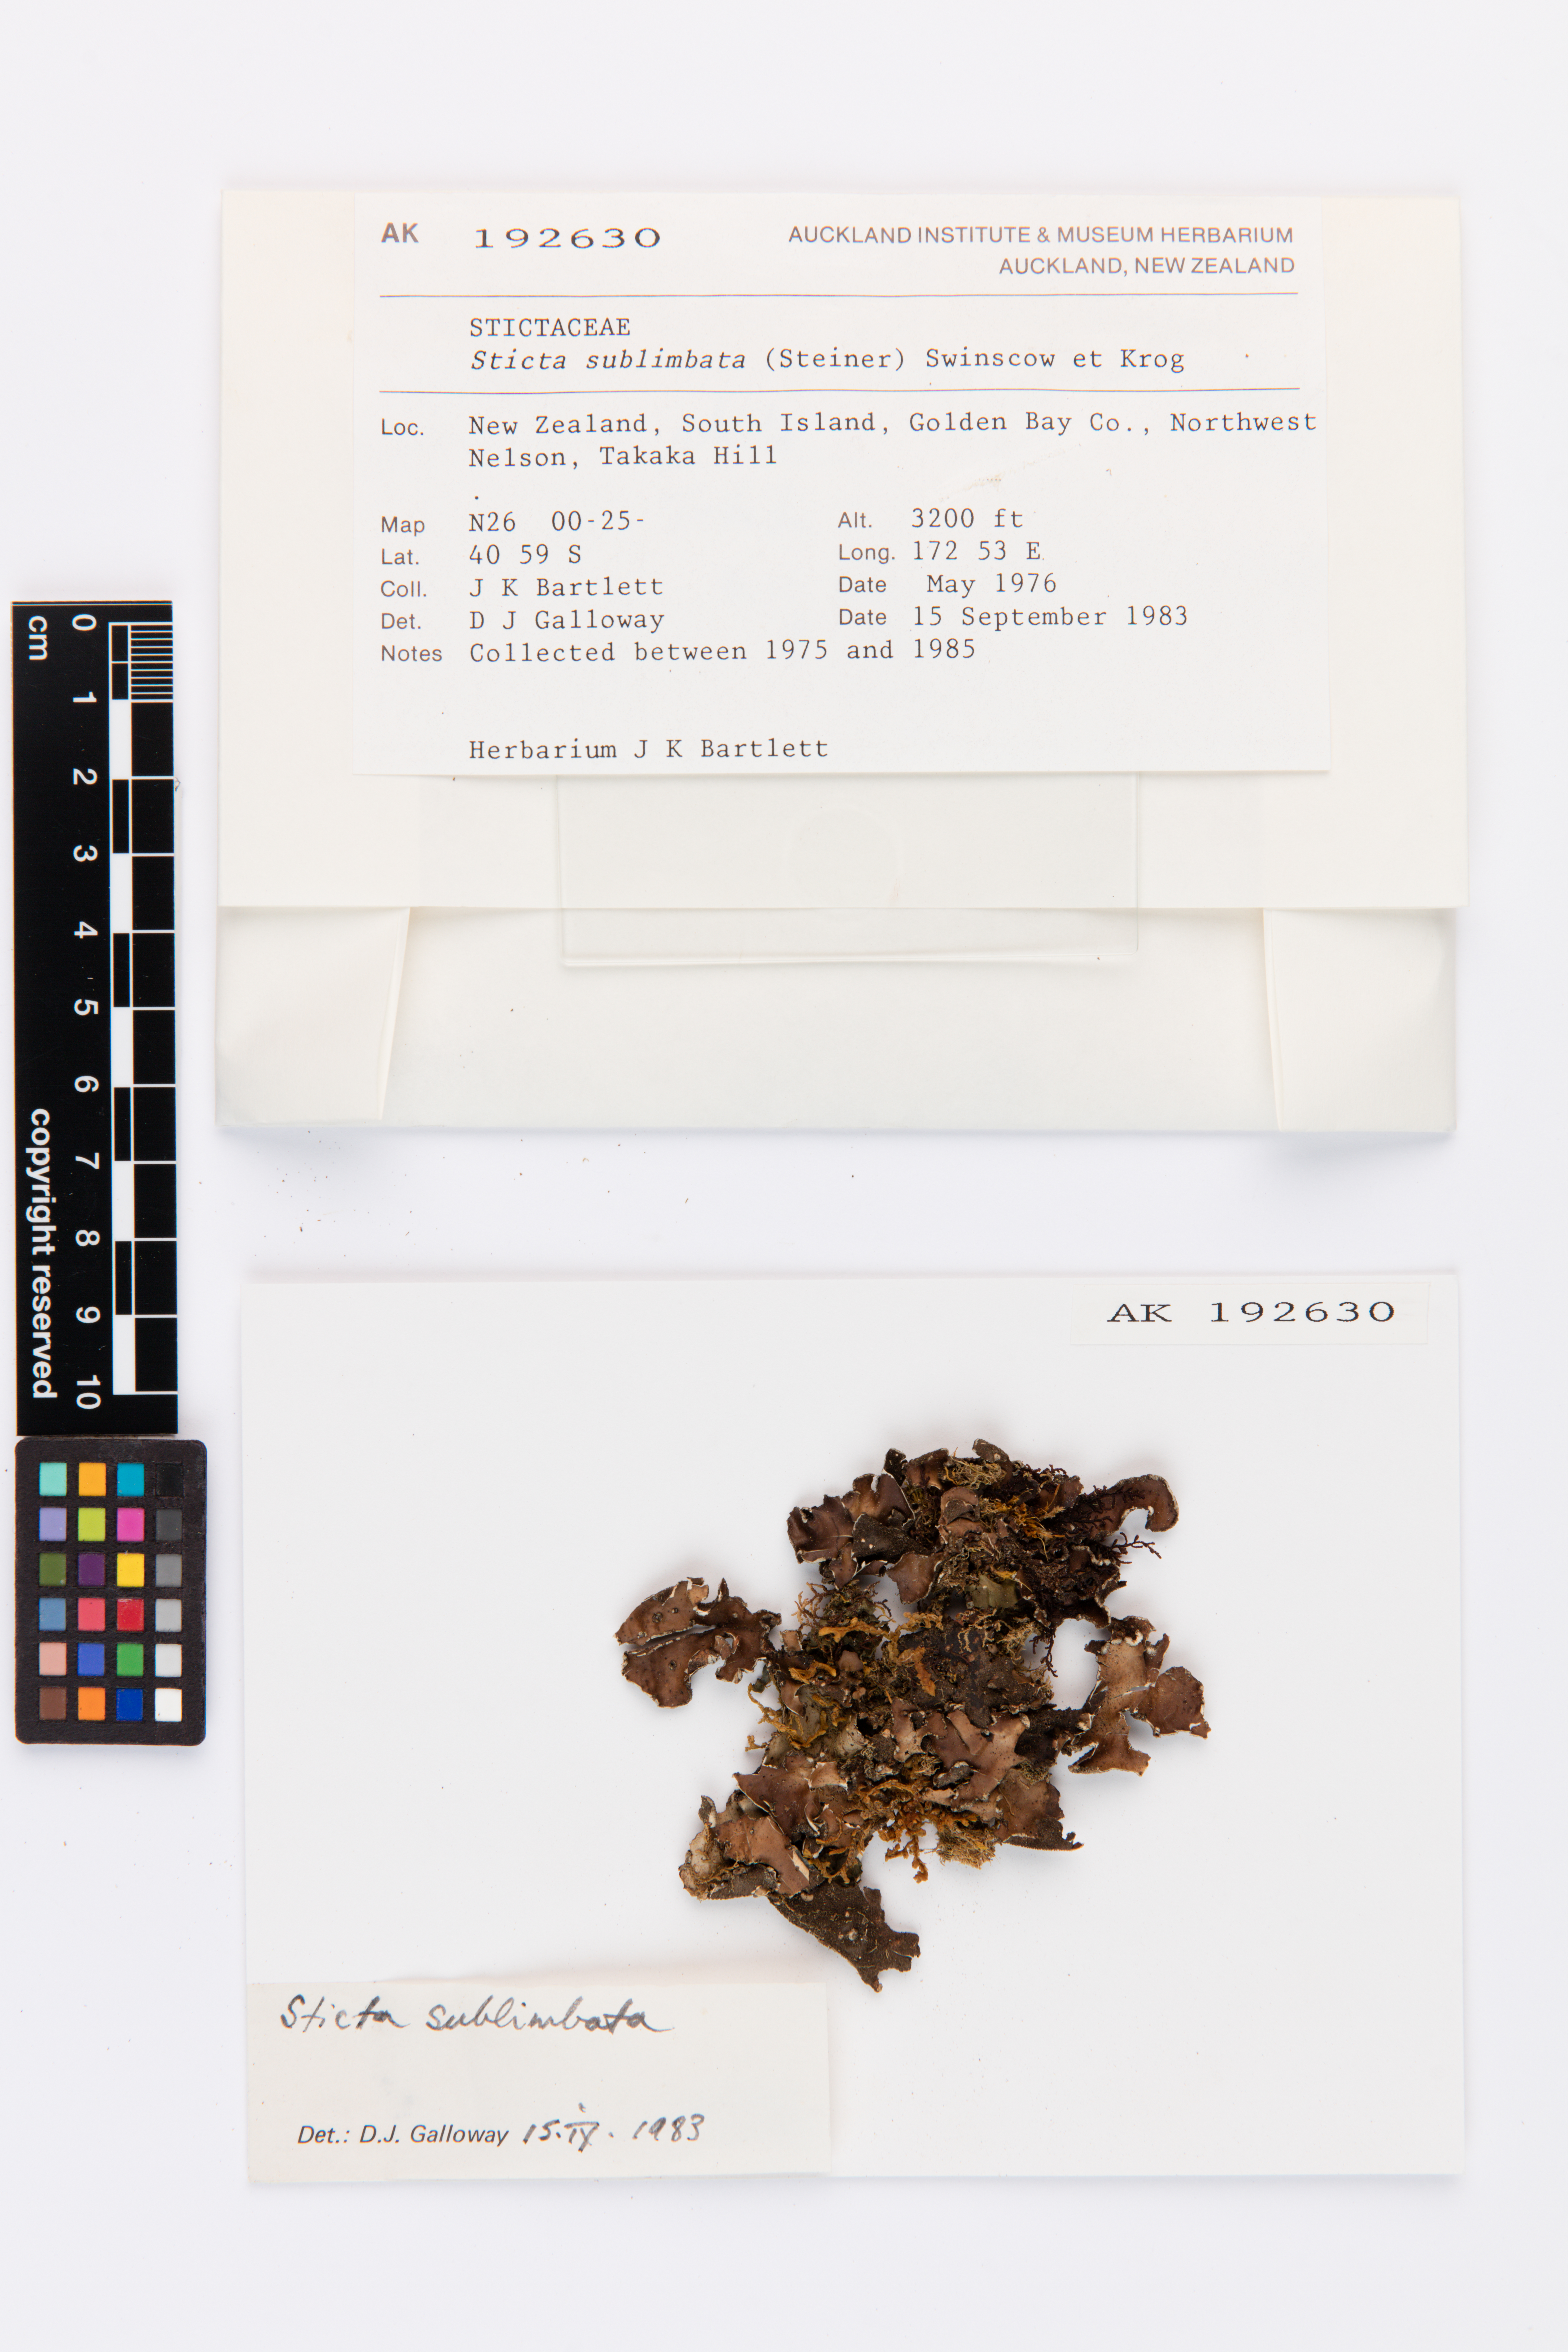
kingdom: Fungi
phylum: Ascomycota
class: Lecanoromycetes
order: Peltigerales
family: Lobariaceae
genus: Sticta
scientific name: Sticta sublimbata
